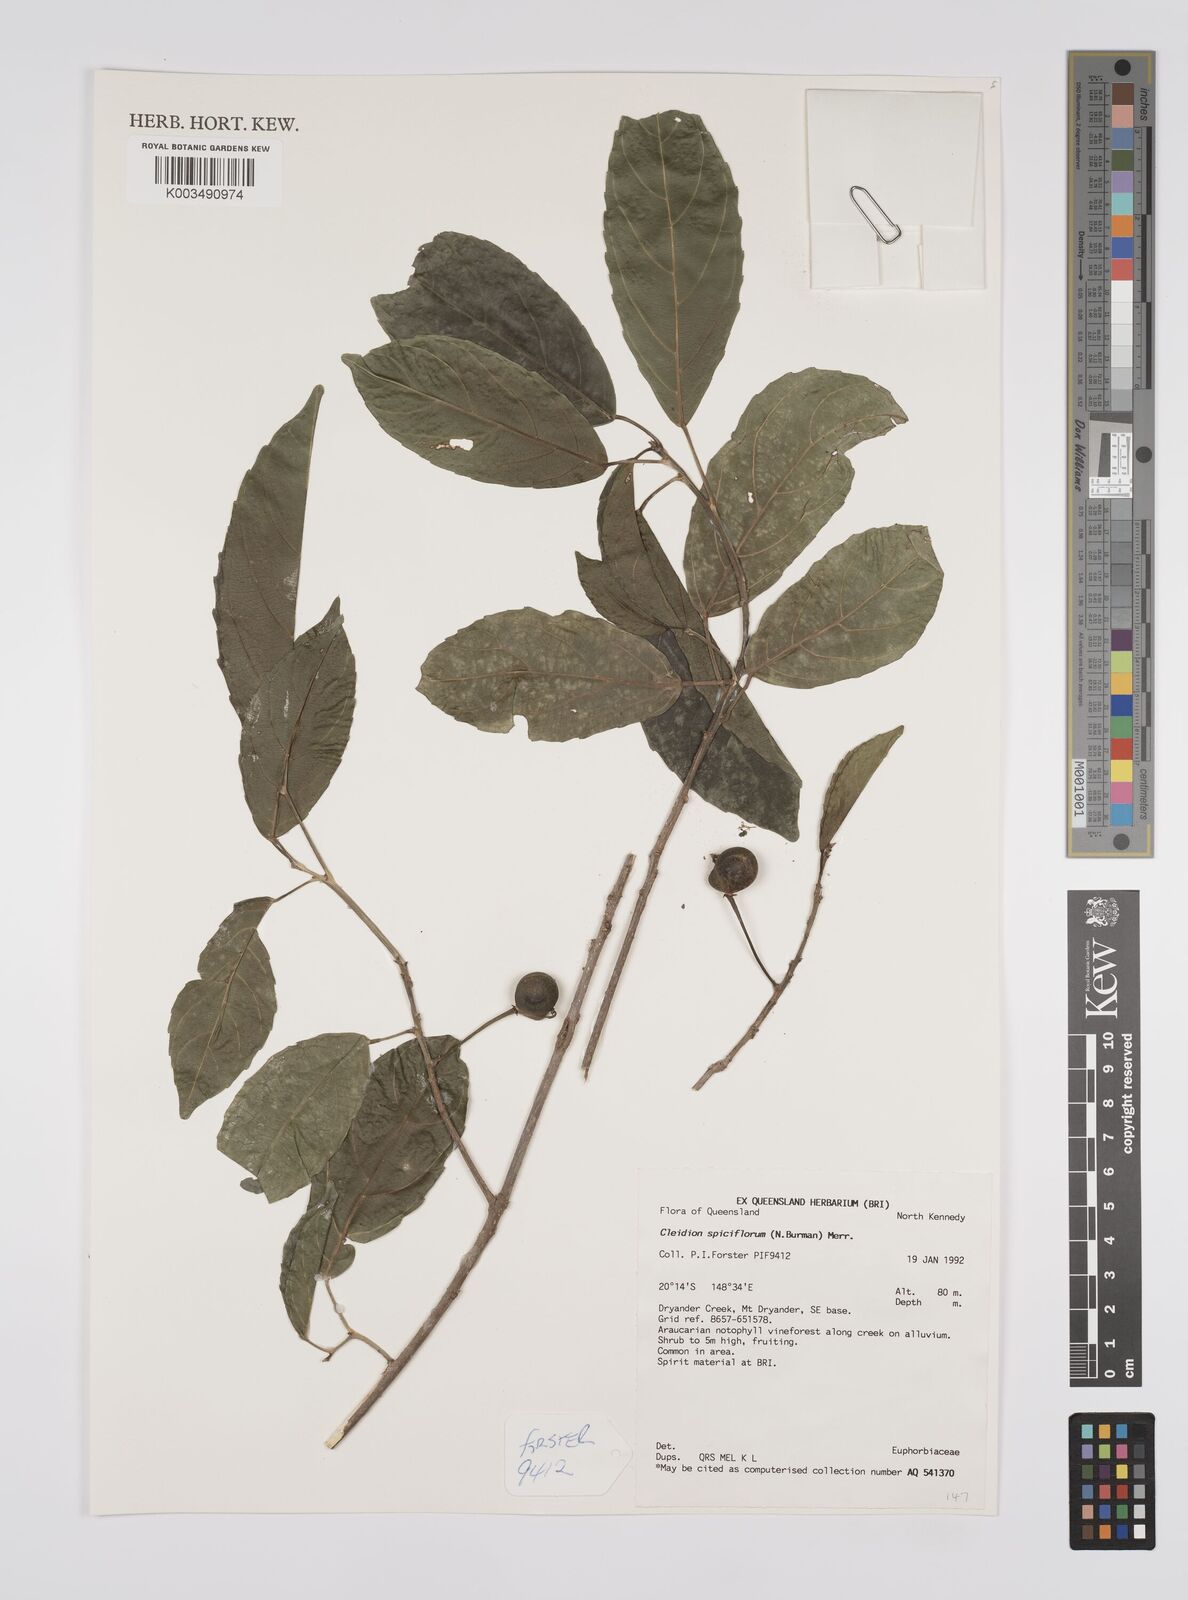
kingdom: Plantae
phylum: Tracheophyta
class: Magnoliopsida
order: Malpighiales
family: Euphorbiaceae
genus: Cleidion
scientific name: Cleidion javanicum
